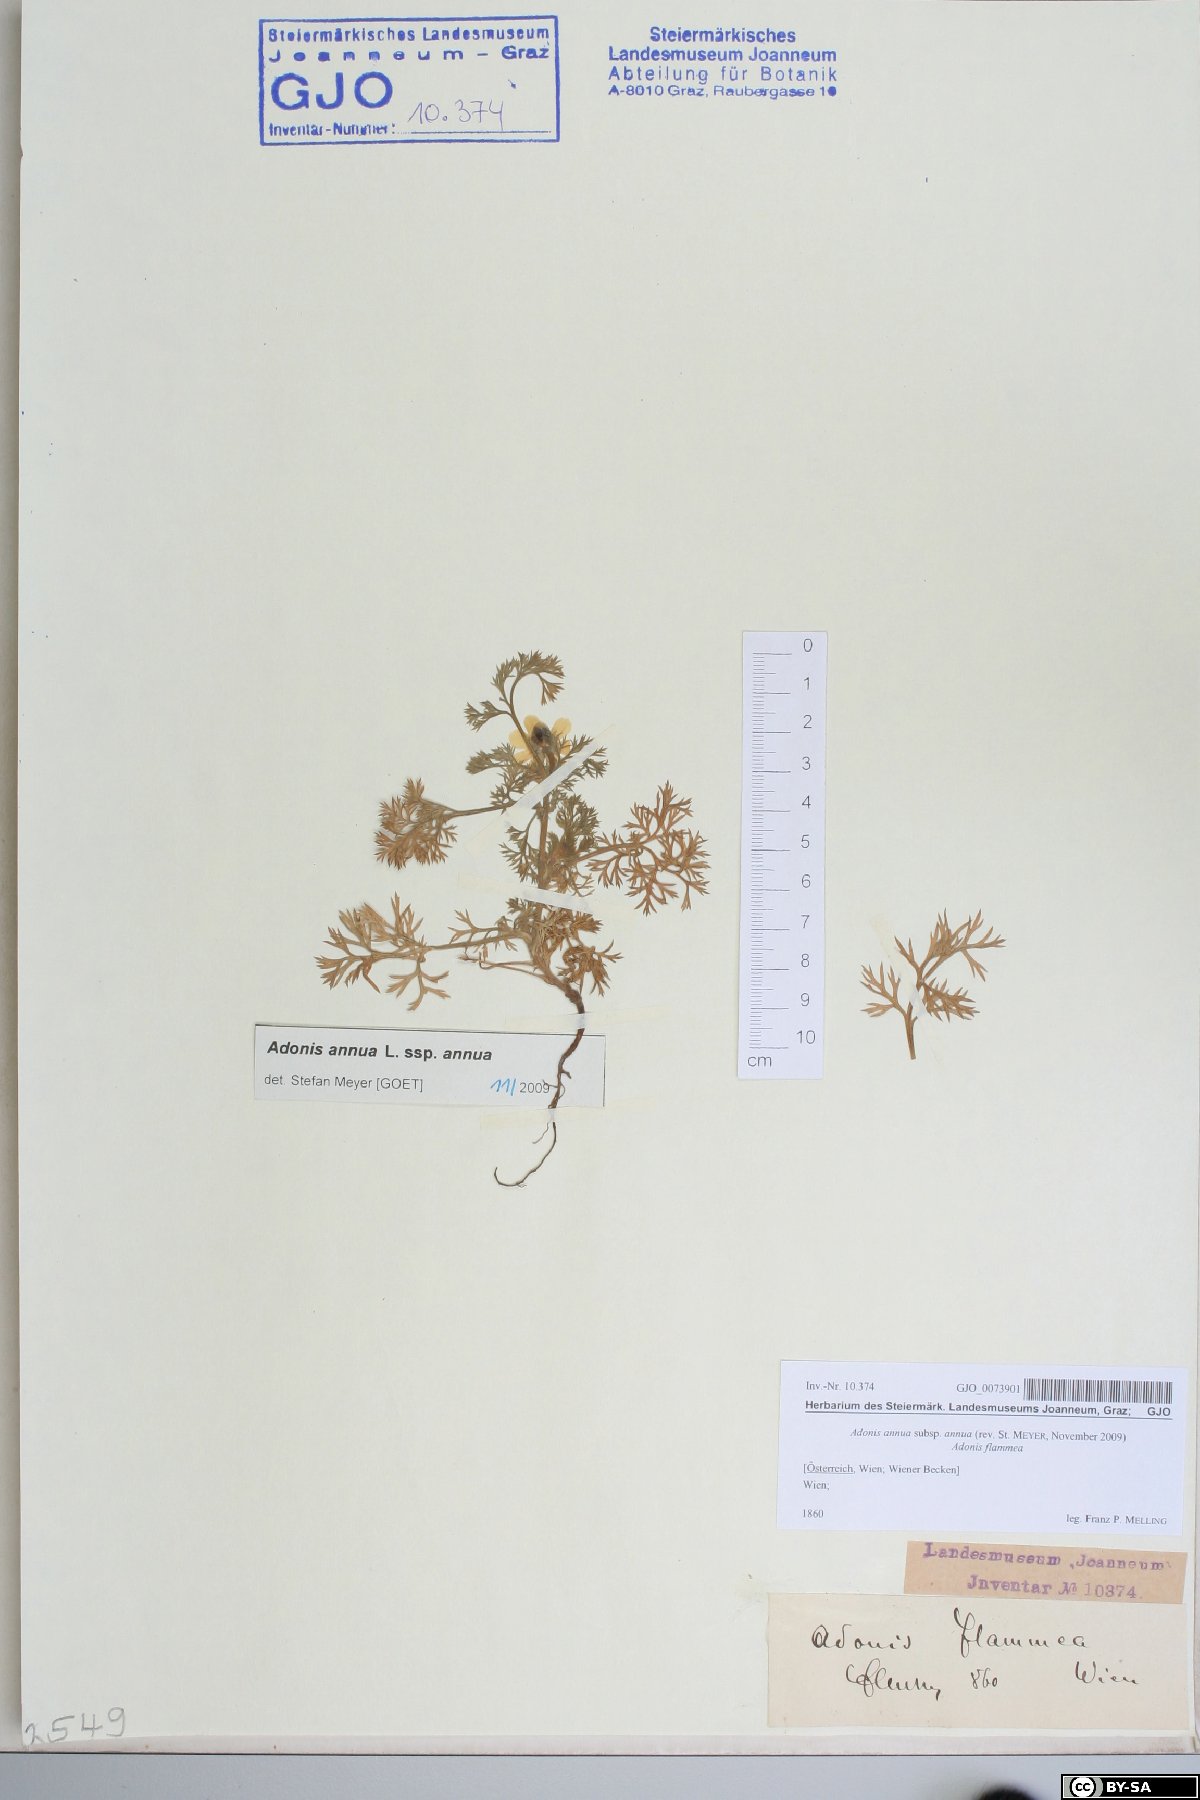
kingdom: Plantae
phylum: Tracheophyta
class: Magnoliopsida
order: Ranunculales
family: Ranunculaceae
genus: Adonis
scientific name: Adonis annua
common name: Pheasant's-eye
